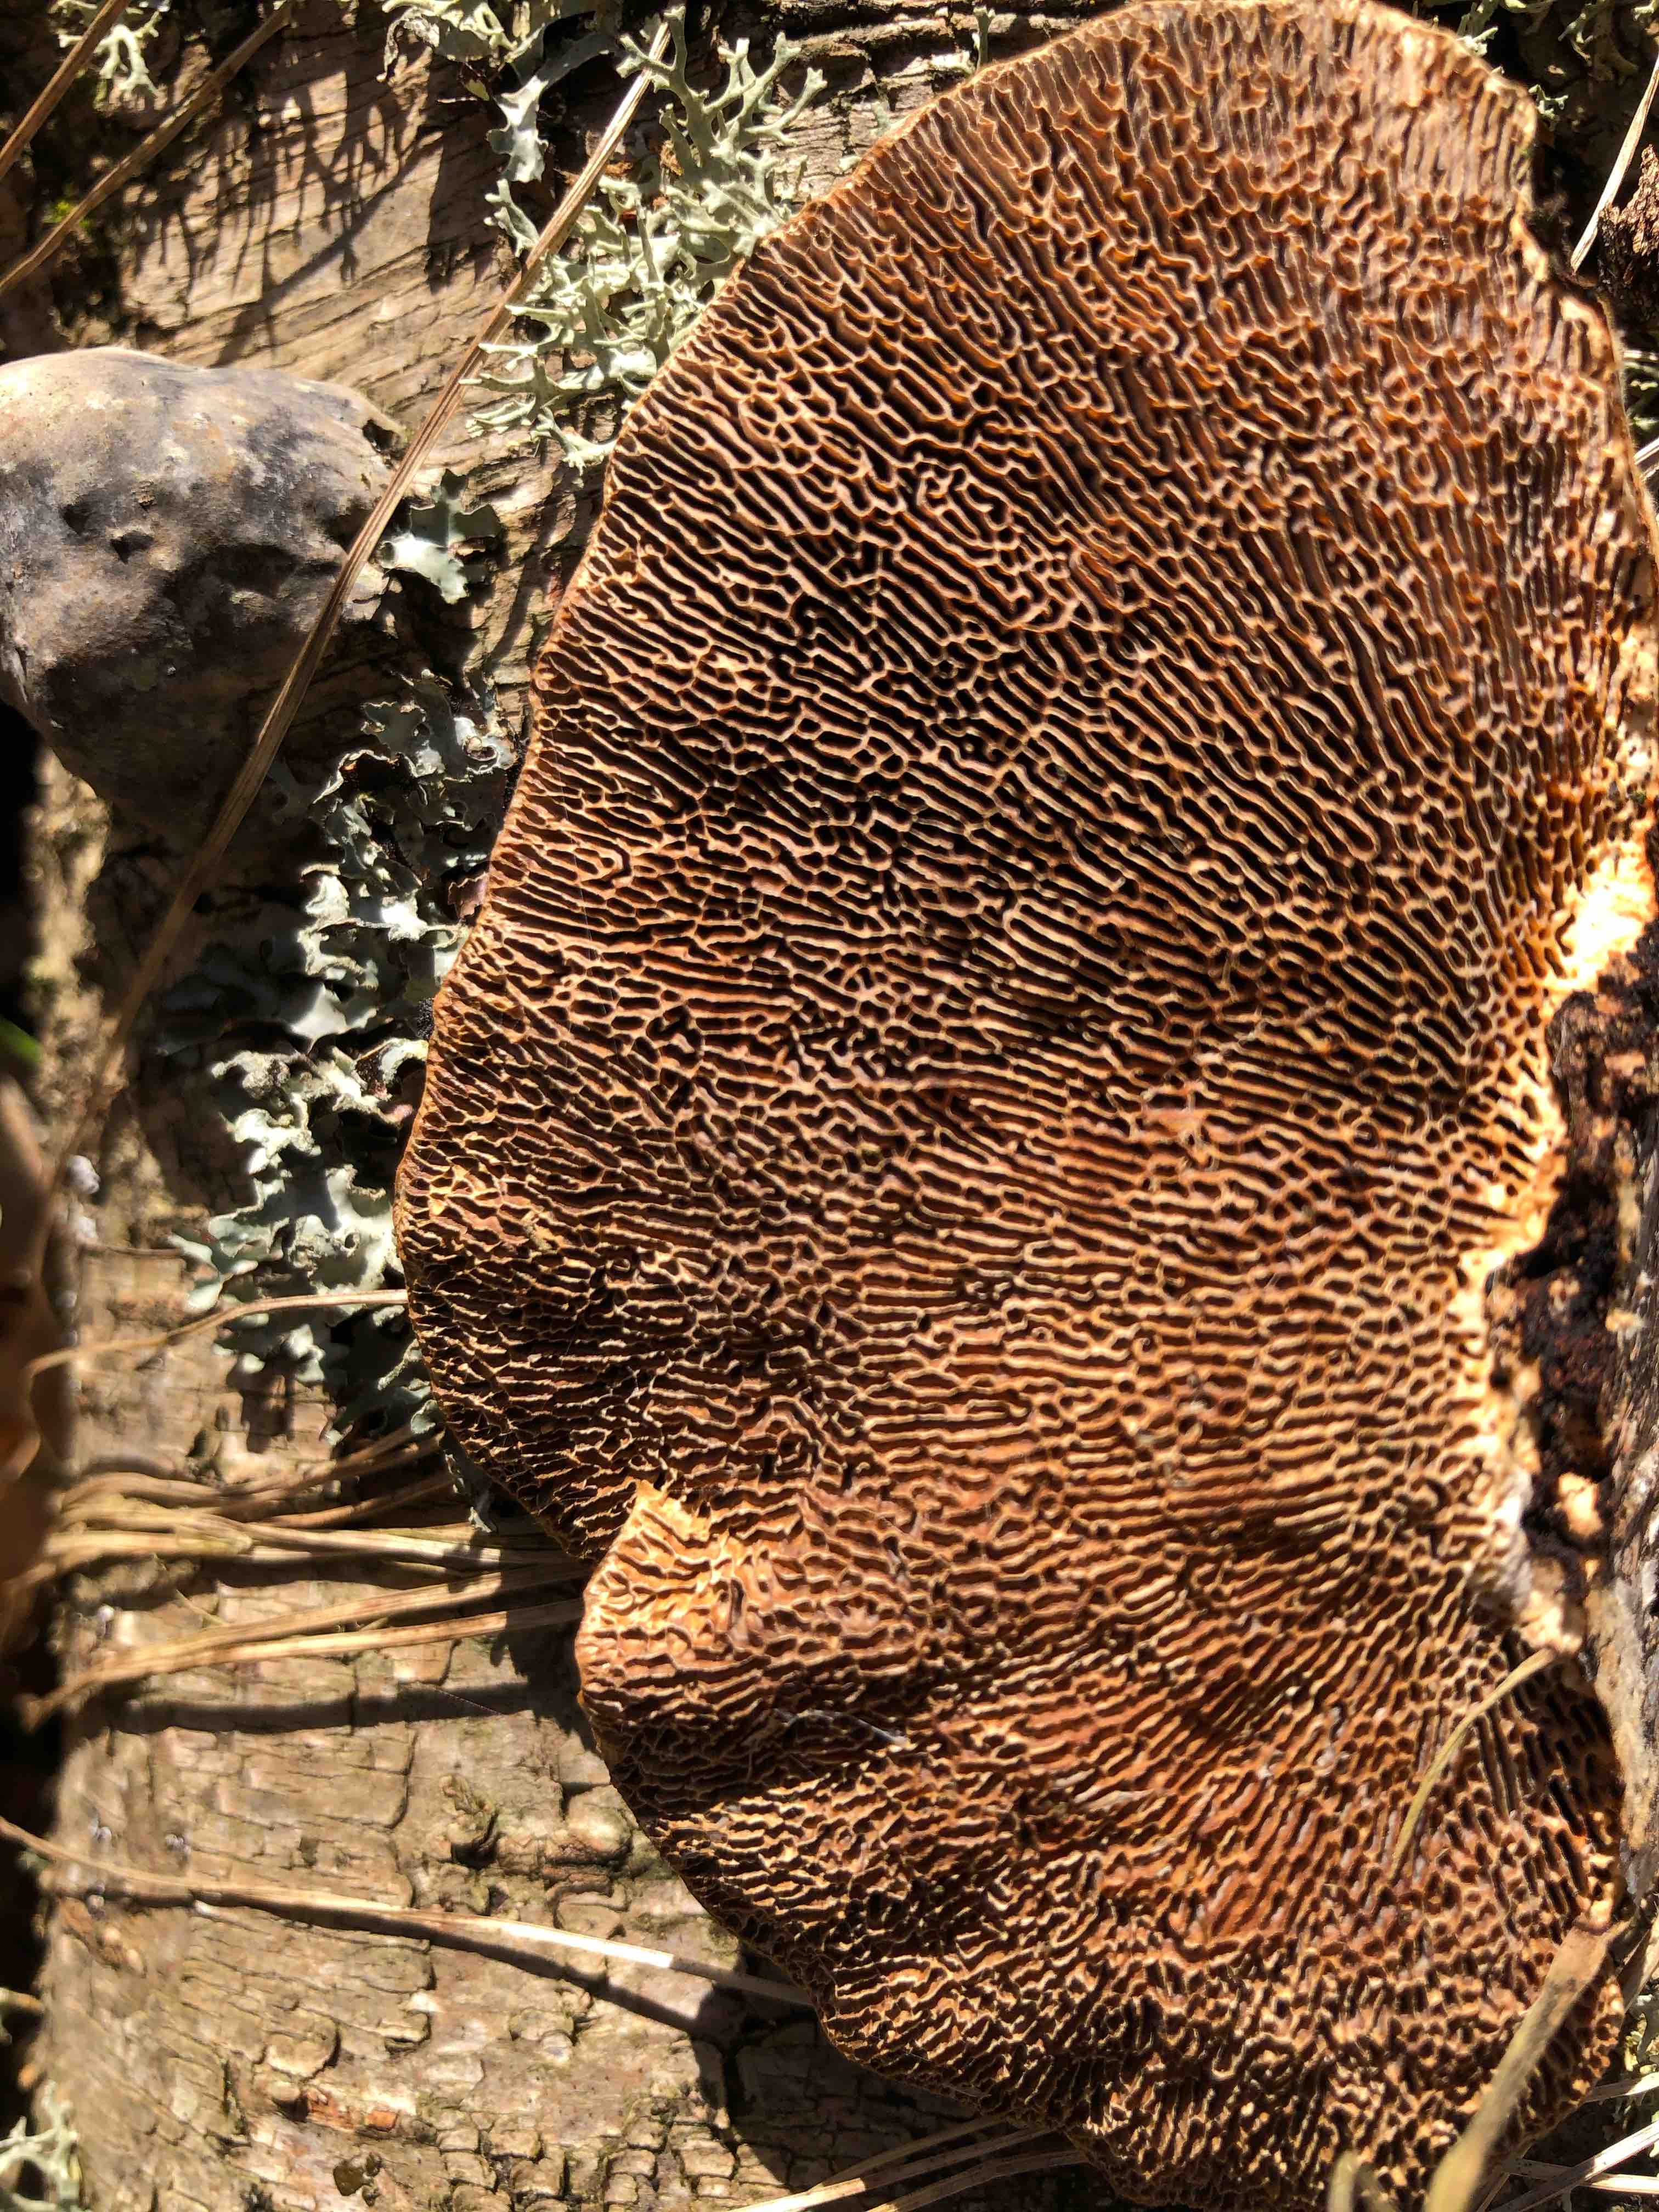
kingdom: Fungi
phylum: Basidiomycota
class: Agaricomycetes
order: Polyporales
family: Polyporaceae
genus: Daedaleopsis
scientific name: Daedaleopsis confragosa
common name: rødmende læderporesvamp
